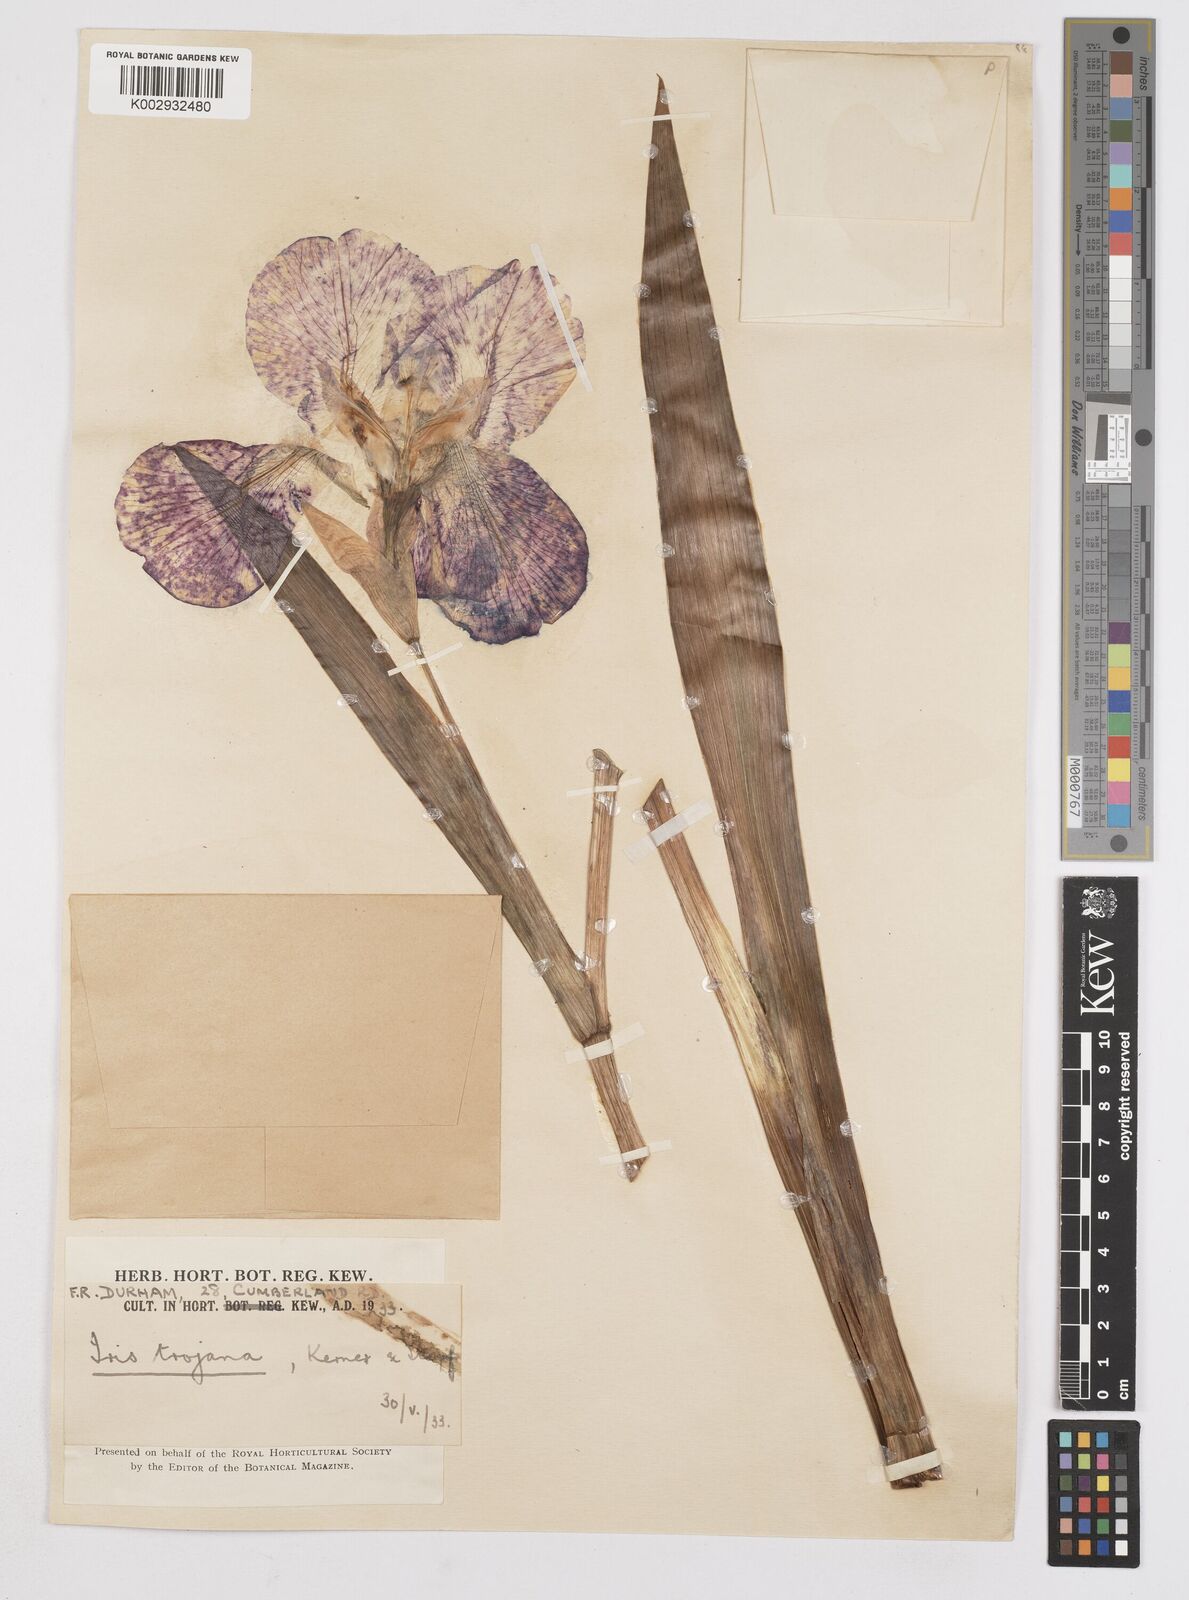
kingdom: Plantae
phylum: Tracheophyta
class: Liliopsida
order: Asparagales
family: Iridaceae
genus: Iris
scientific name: Iris
